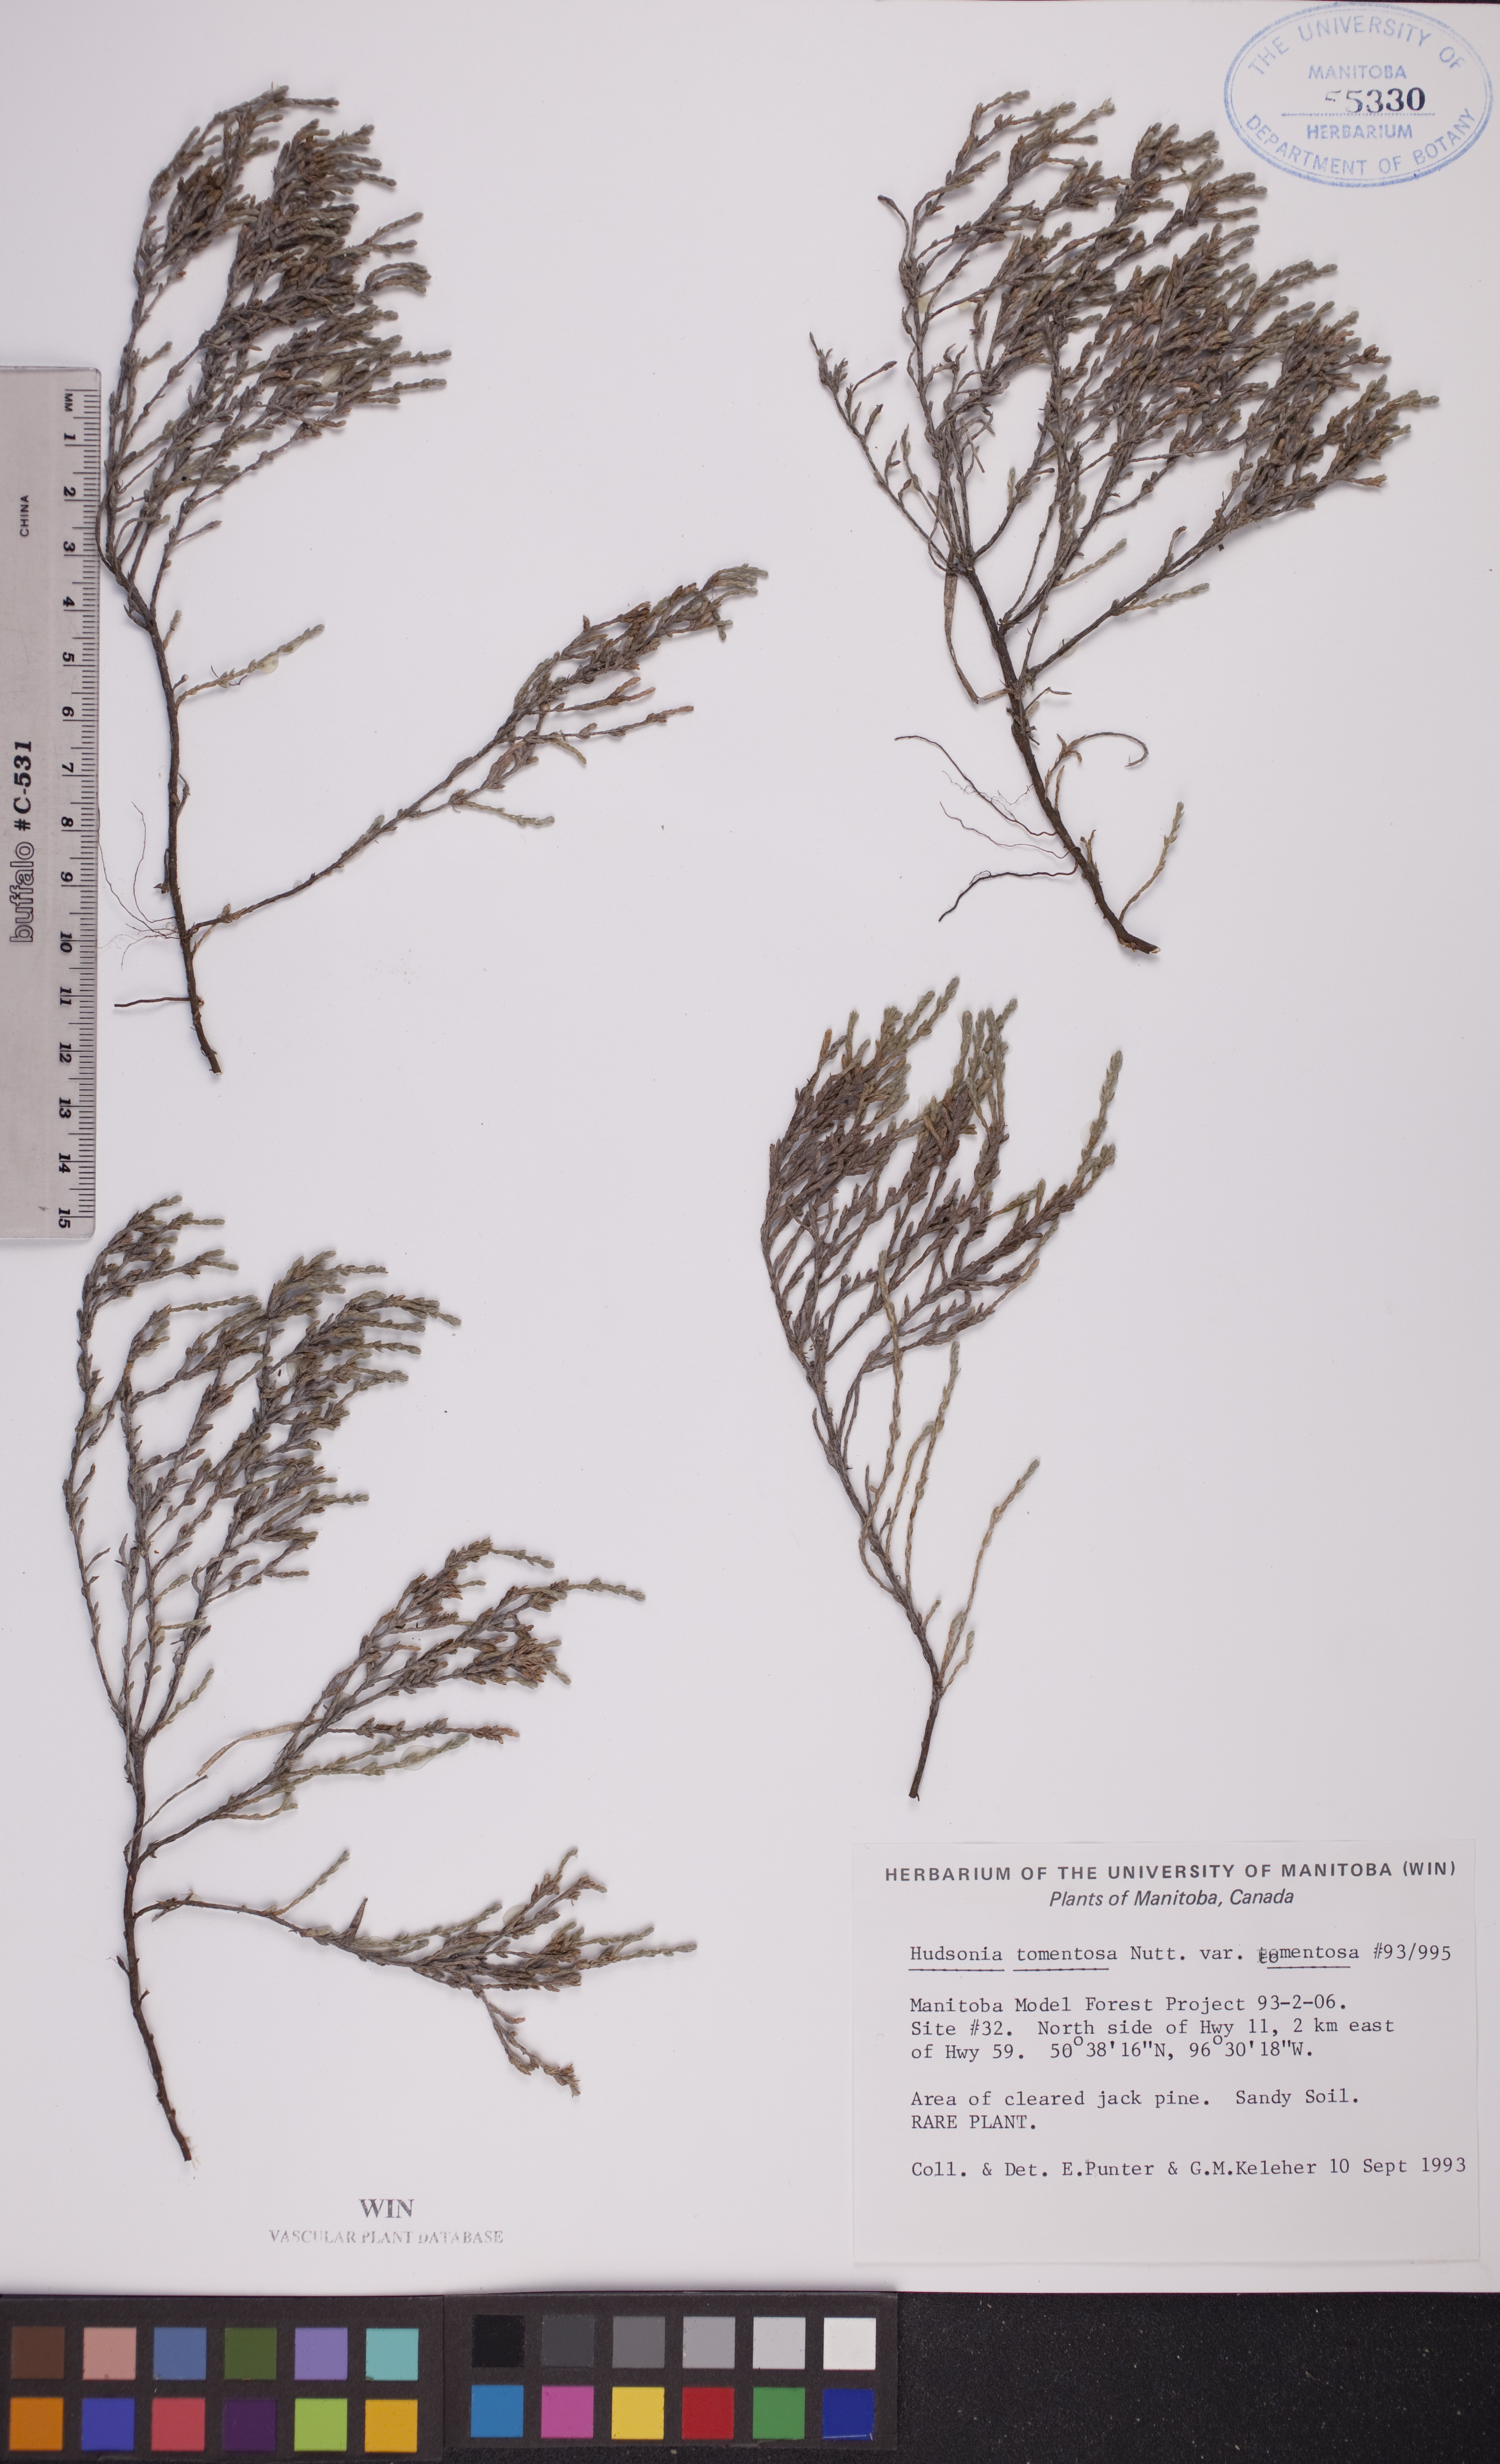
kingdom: Plantae
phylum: Tracheophyta
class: Magnoliopsida
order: Malvales
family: Cistaceae
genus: Hudsonia
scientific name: Hudsonia tomentosa
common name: Beach-heath
